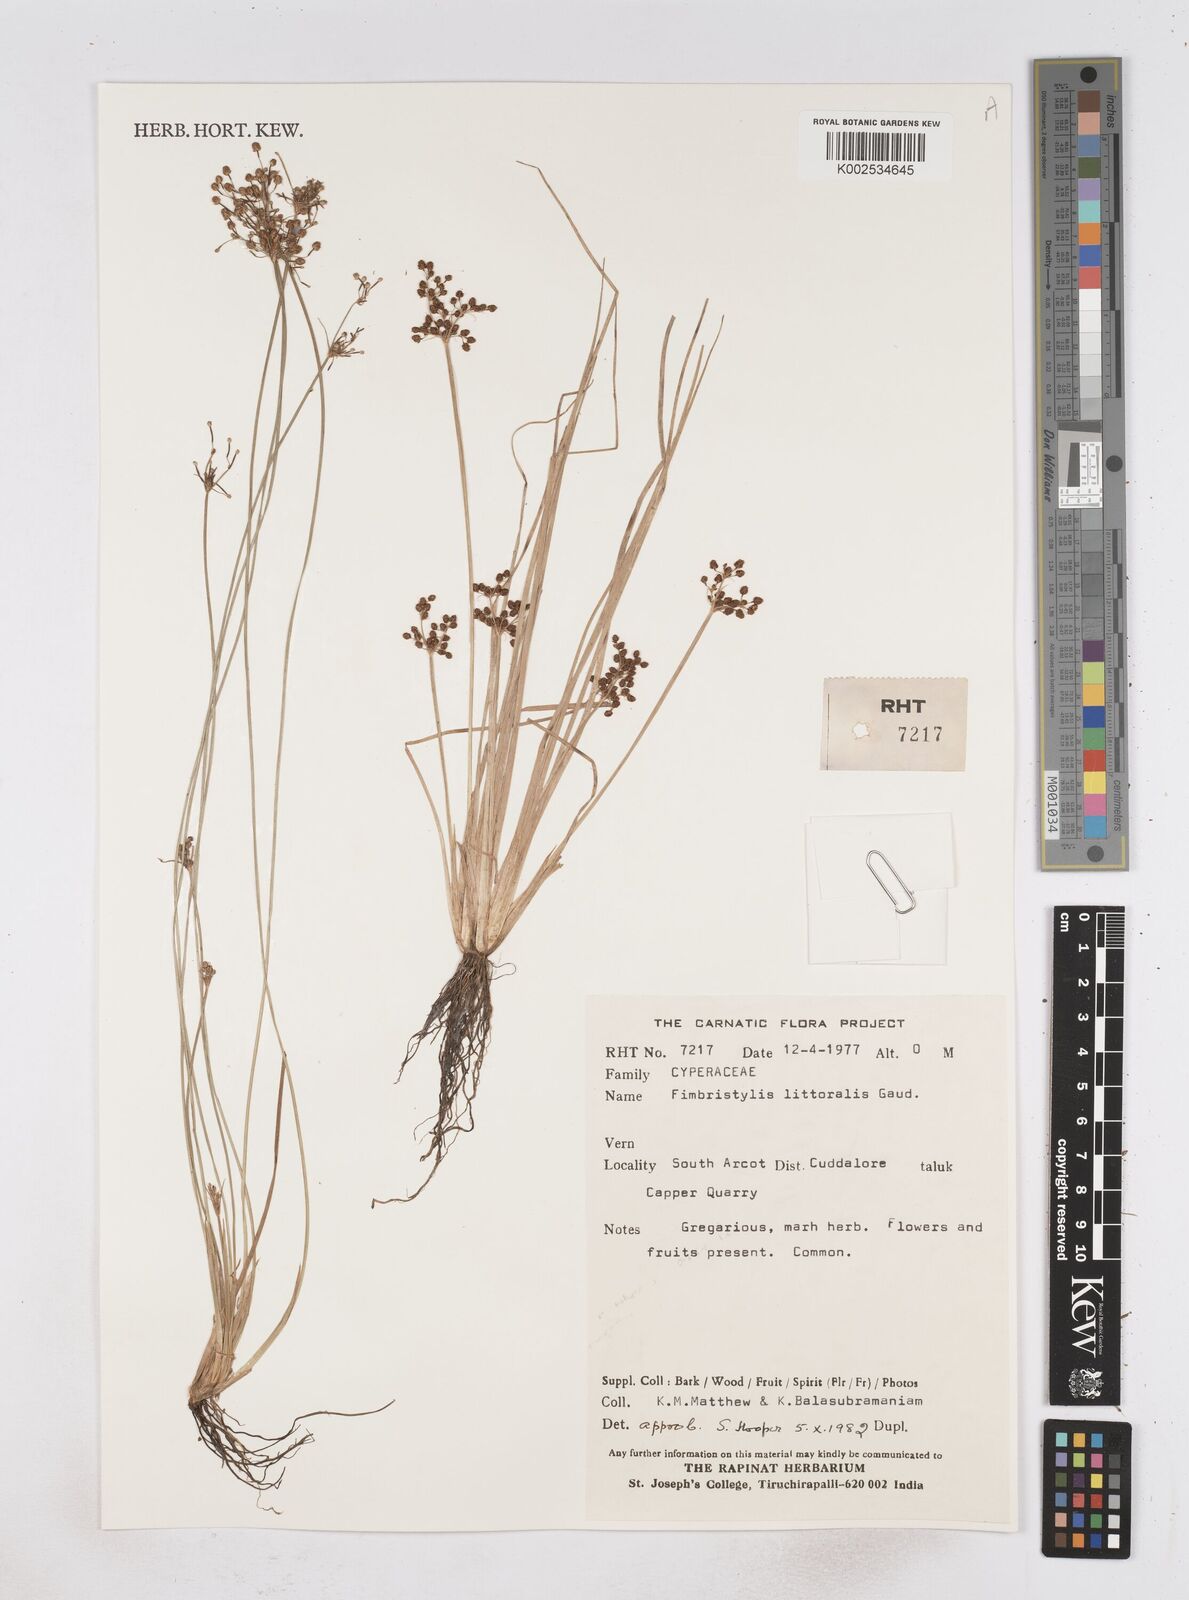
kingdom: Plantae
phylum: Tracheophyta
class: Liliopsida
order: Poales
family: Cyperaceae
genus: Fimbristylis
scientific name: Fimbristylis littoralis
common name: Fimbry
